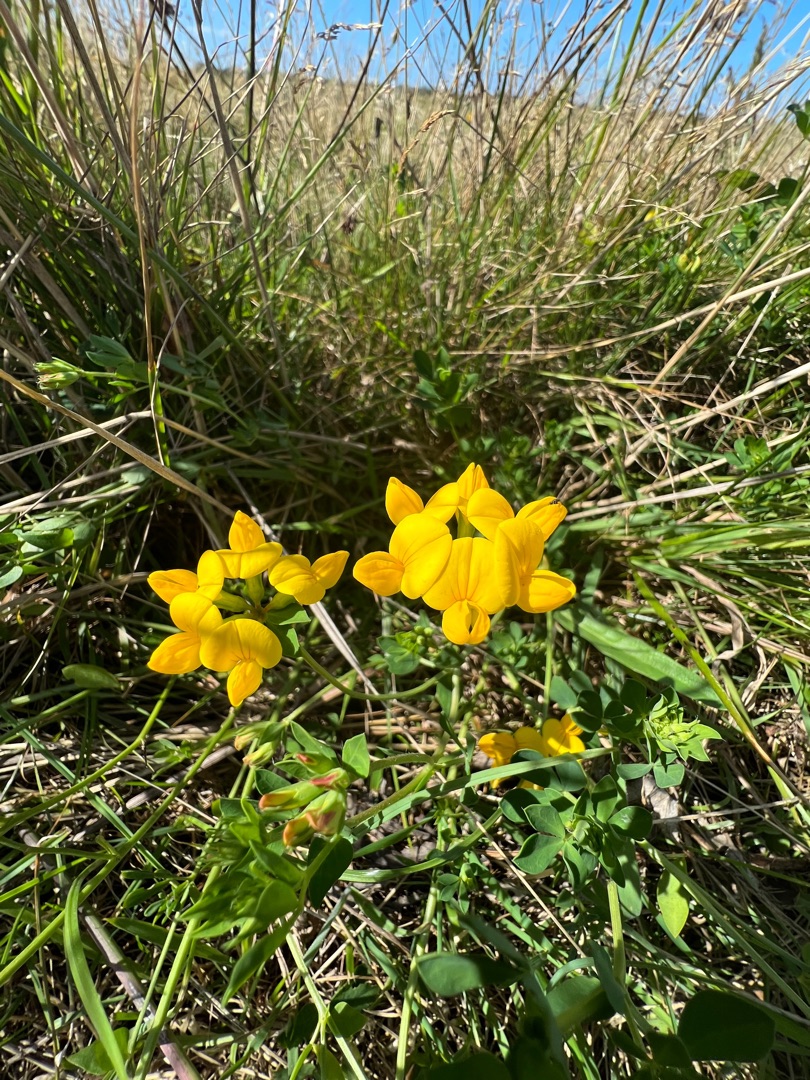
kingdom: Plantae
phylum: Tracheophyta
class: Magnoliopsida
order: Fabales
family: Fabaceae
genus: Lotus
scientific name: Lotus corniculatus
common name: Almindelig kællingetand
